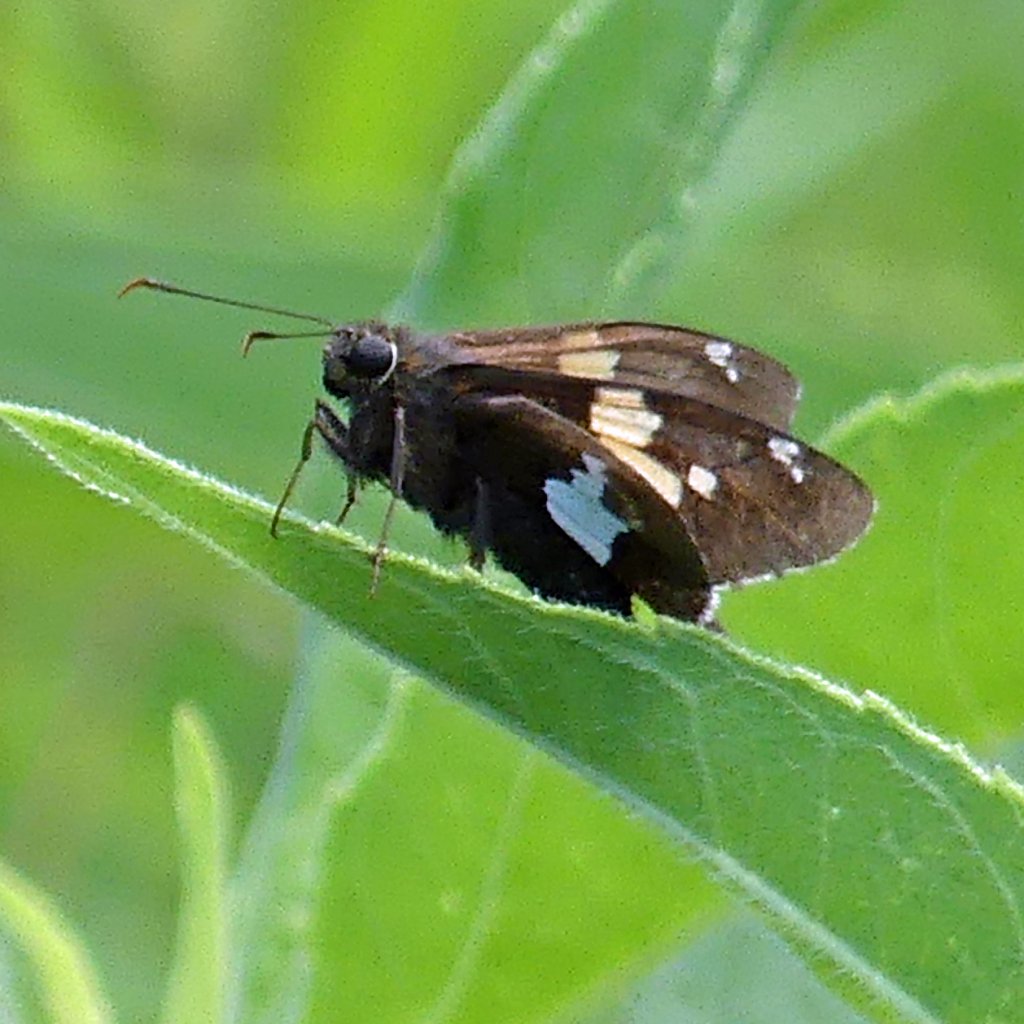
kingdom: Animalia
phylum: Arthropoda
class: Insecta
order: Lepidoptera
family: Hesperiidae
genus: Epargyreus
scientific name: Epargyreus clarus
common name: Silver-spotted Skipper
